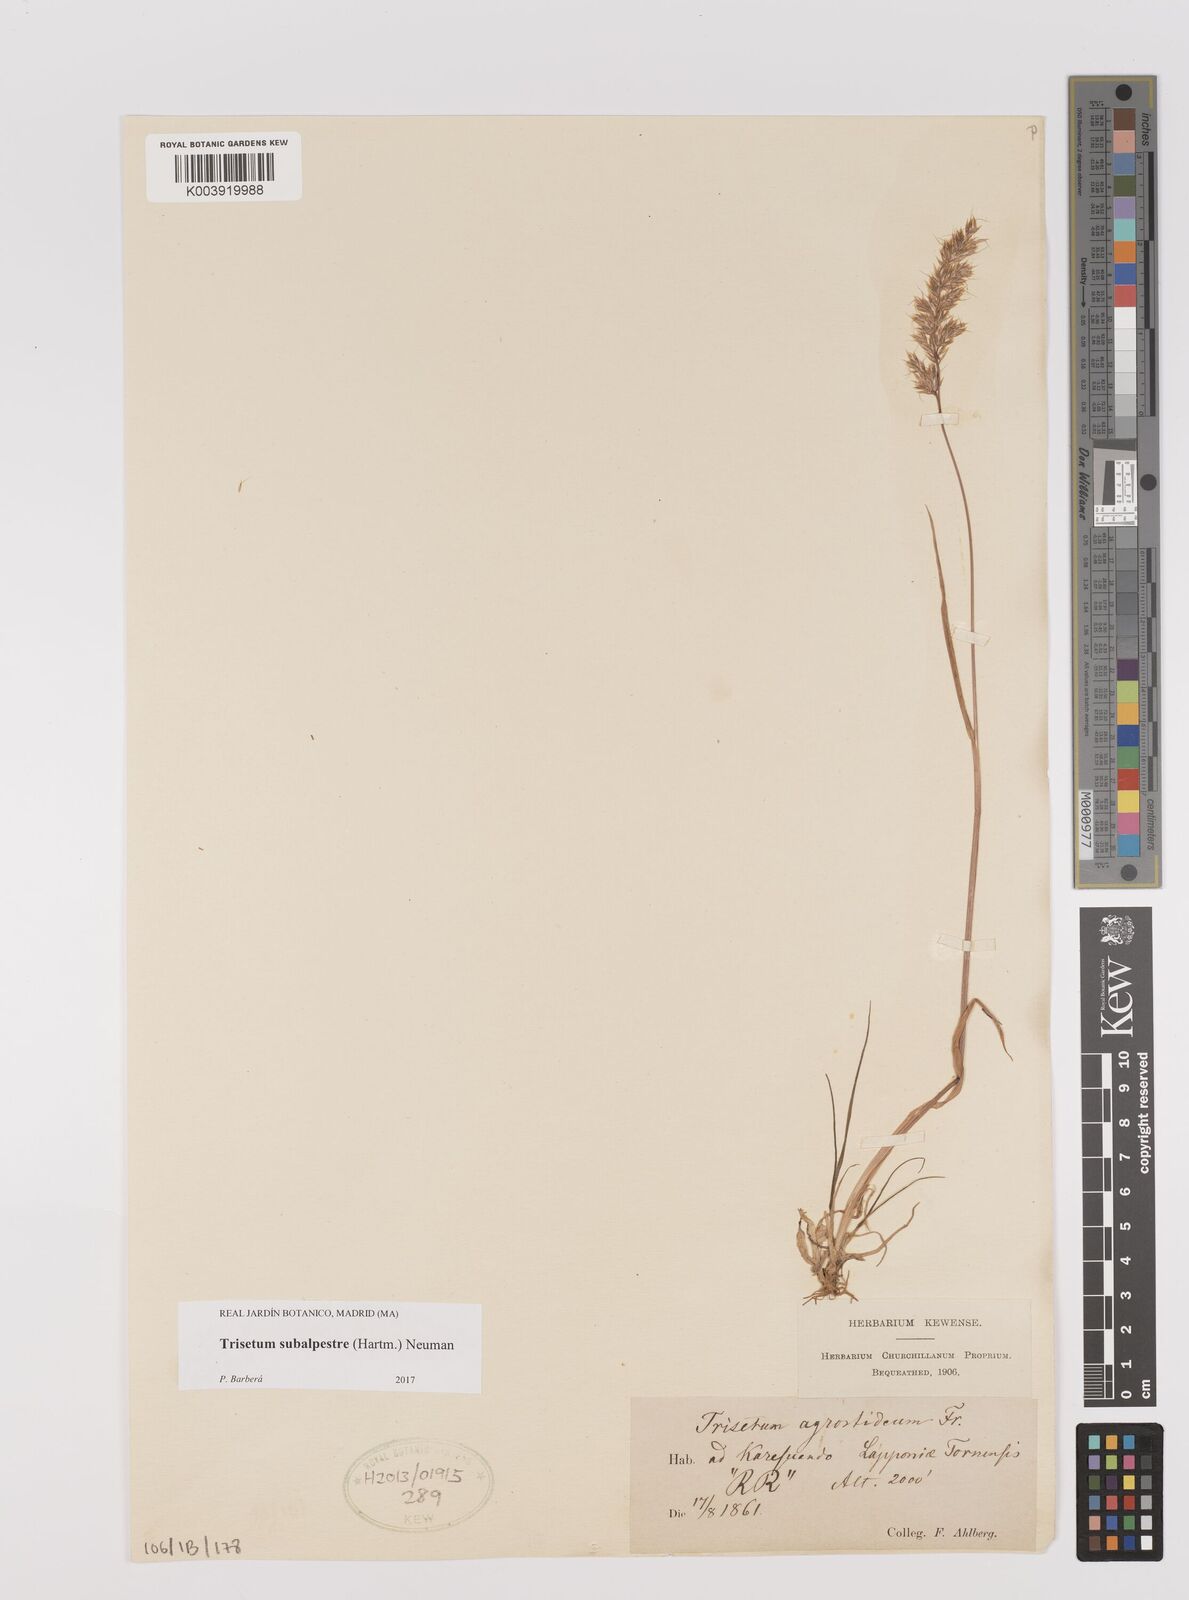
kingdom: Plantae
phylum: Tracheophyta
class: Liliopsida
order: Poales
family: Poaceae
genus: Koeleria
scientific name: Koeleria subalpestris
